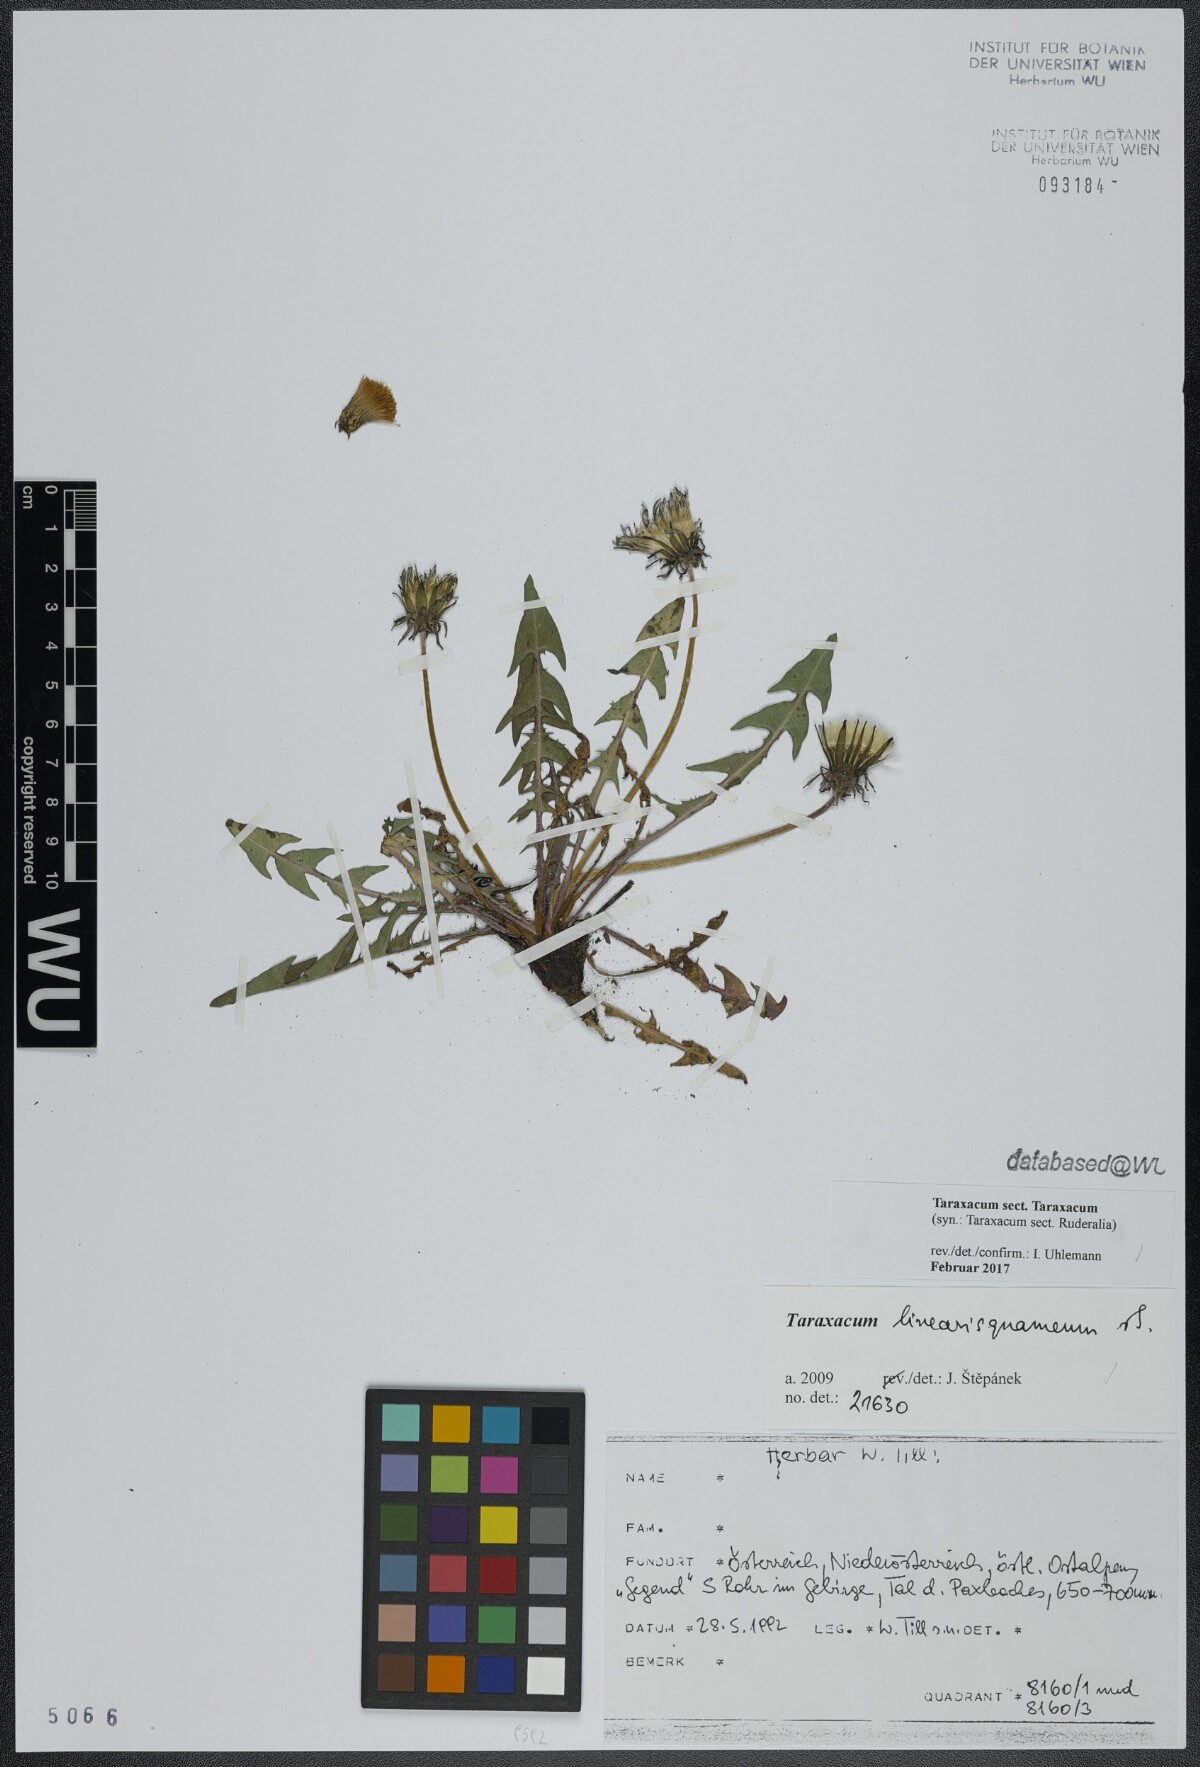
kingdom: Plantae
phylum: Tracheophyta
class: Magnoliopsida
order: Asterales
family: Asteraceae
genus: Taraxacum
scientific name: Taraxacum
